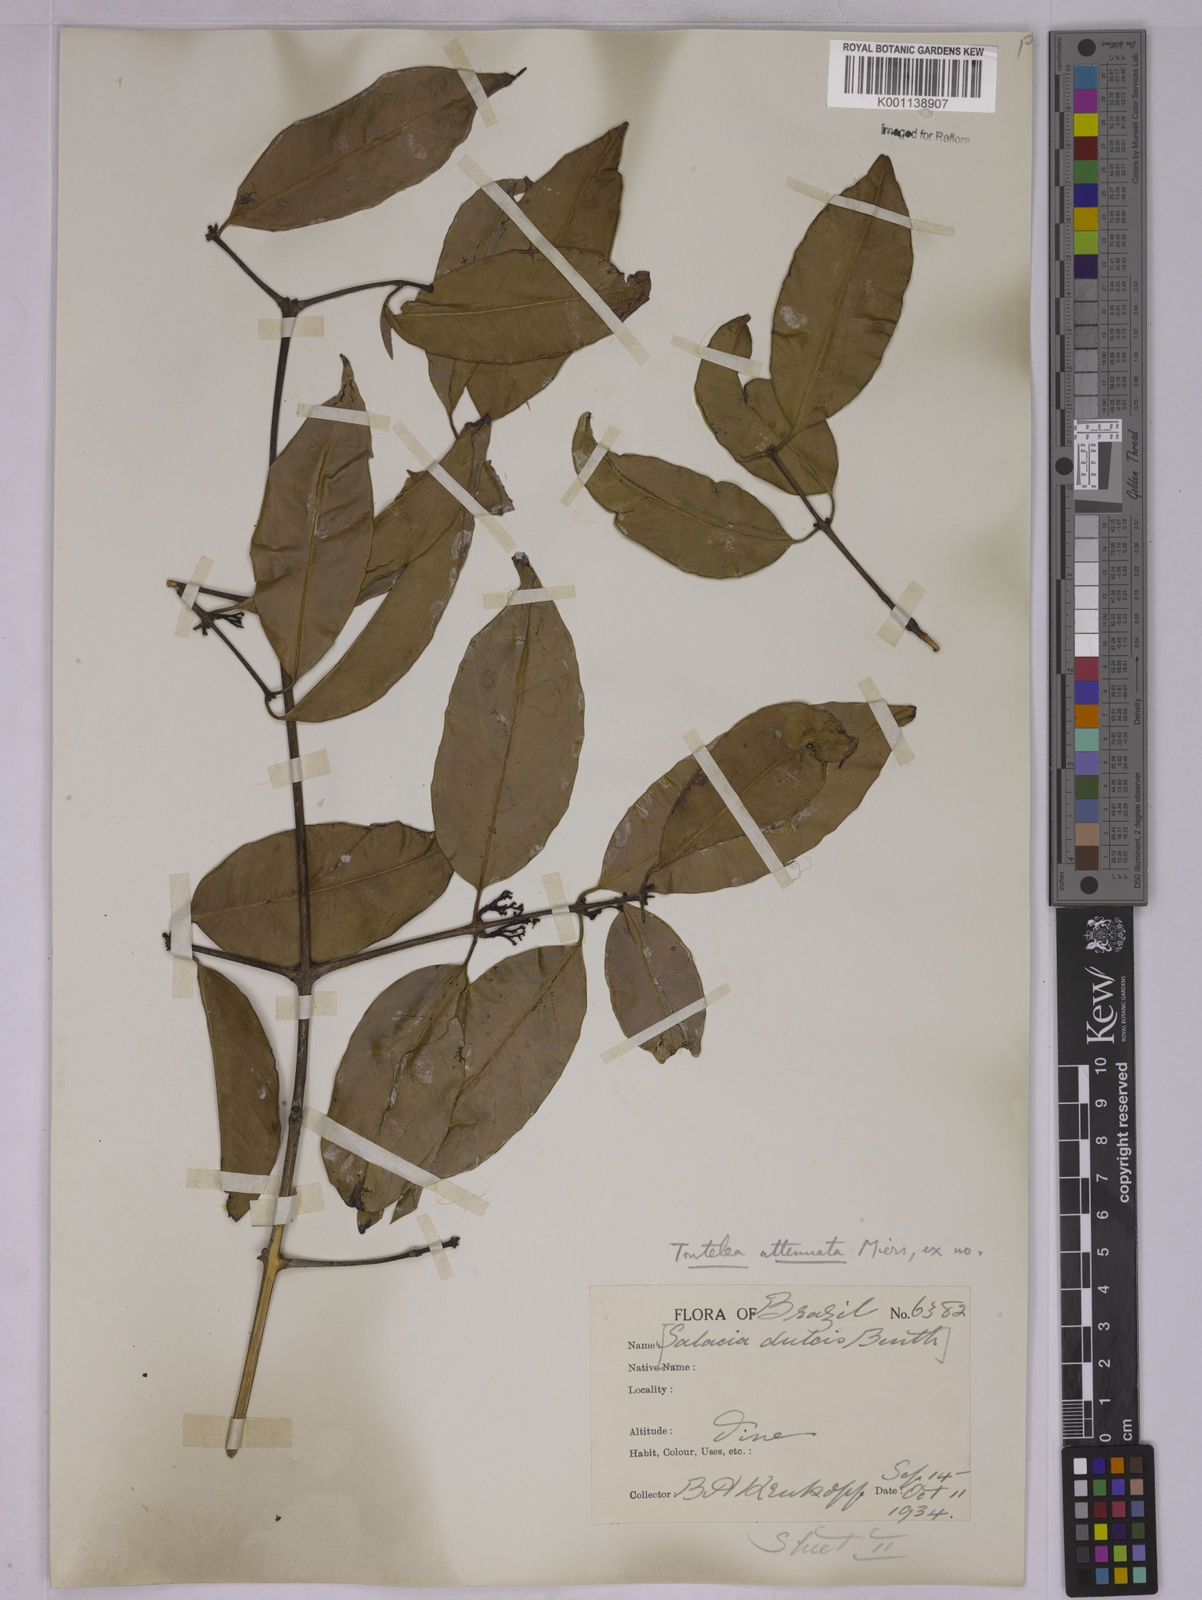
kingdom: Plantae
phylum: Tracheophyta
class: Magnoliopsida
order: Celastrales
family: Celastraceae
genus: Tontelea
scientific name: Tontelea attenuata
